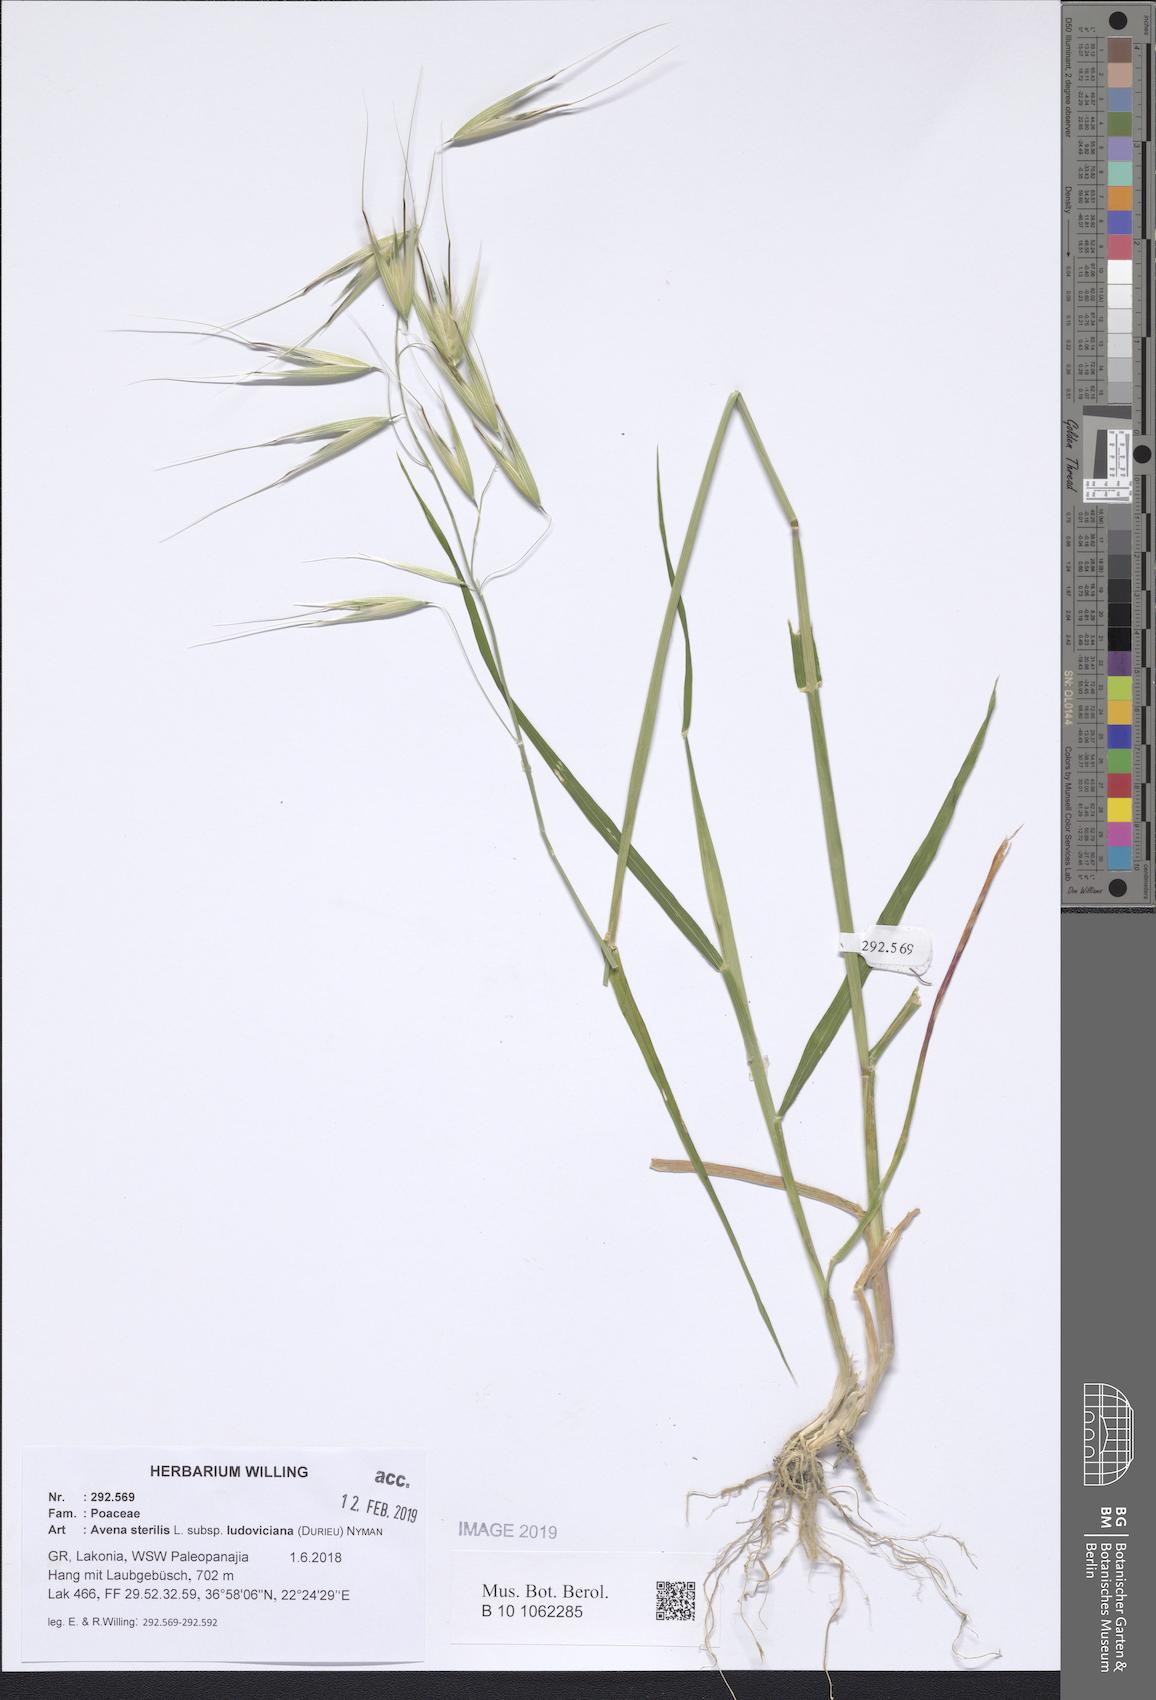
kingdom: Plantae
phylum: Tracheophyta
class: Liliopsida
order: Poales
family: Poaceae
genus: Avena
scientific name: Avena sterilis
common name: Animated oat
